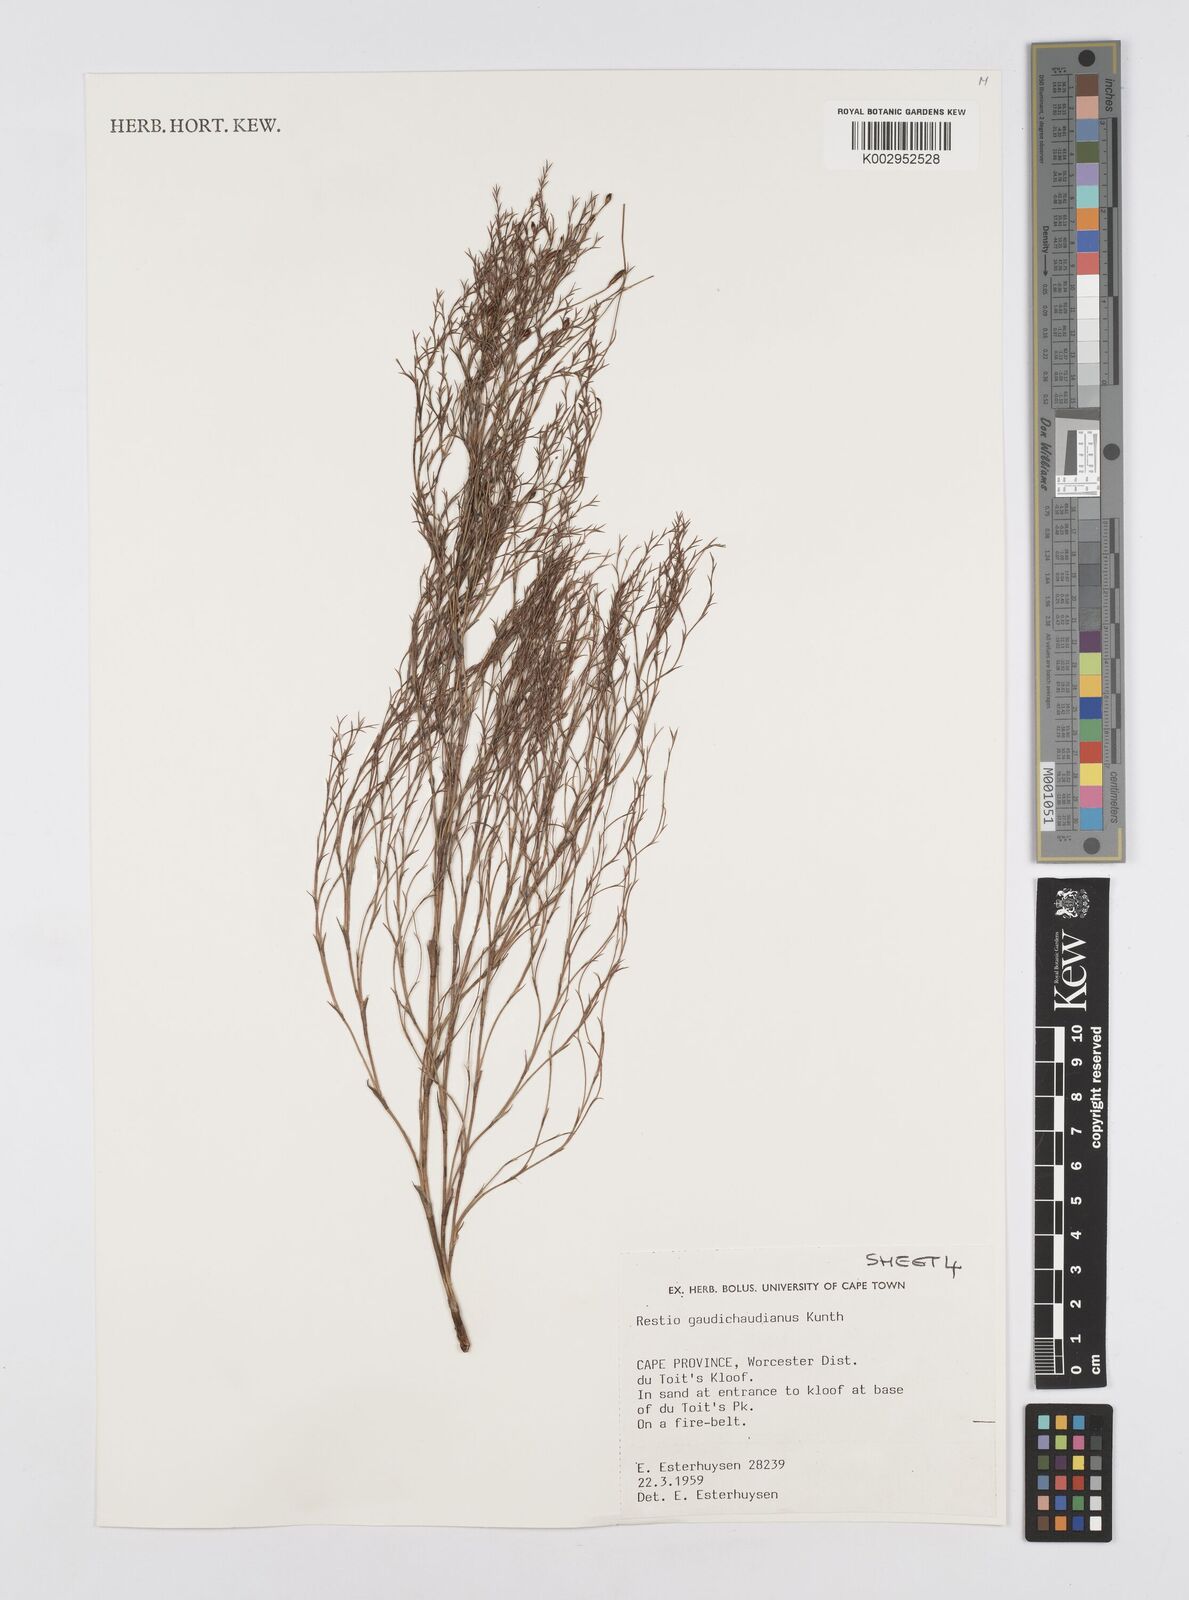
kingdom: Plantae
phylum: Tracheophyta
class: Liliopsida
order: Poales
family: Restionaceae
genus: Restio
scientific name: Restio gaudichaudianus
